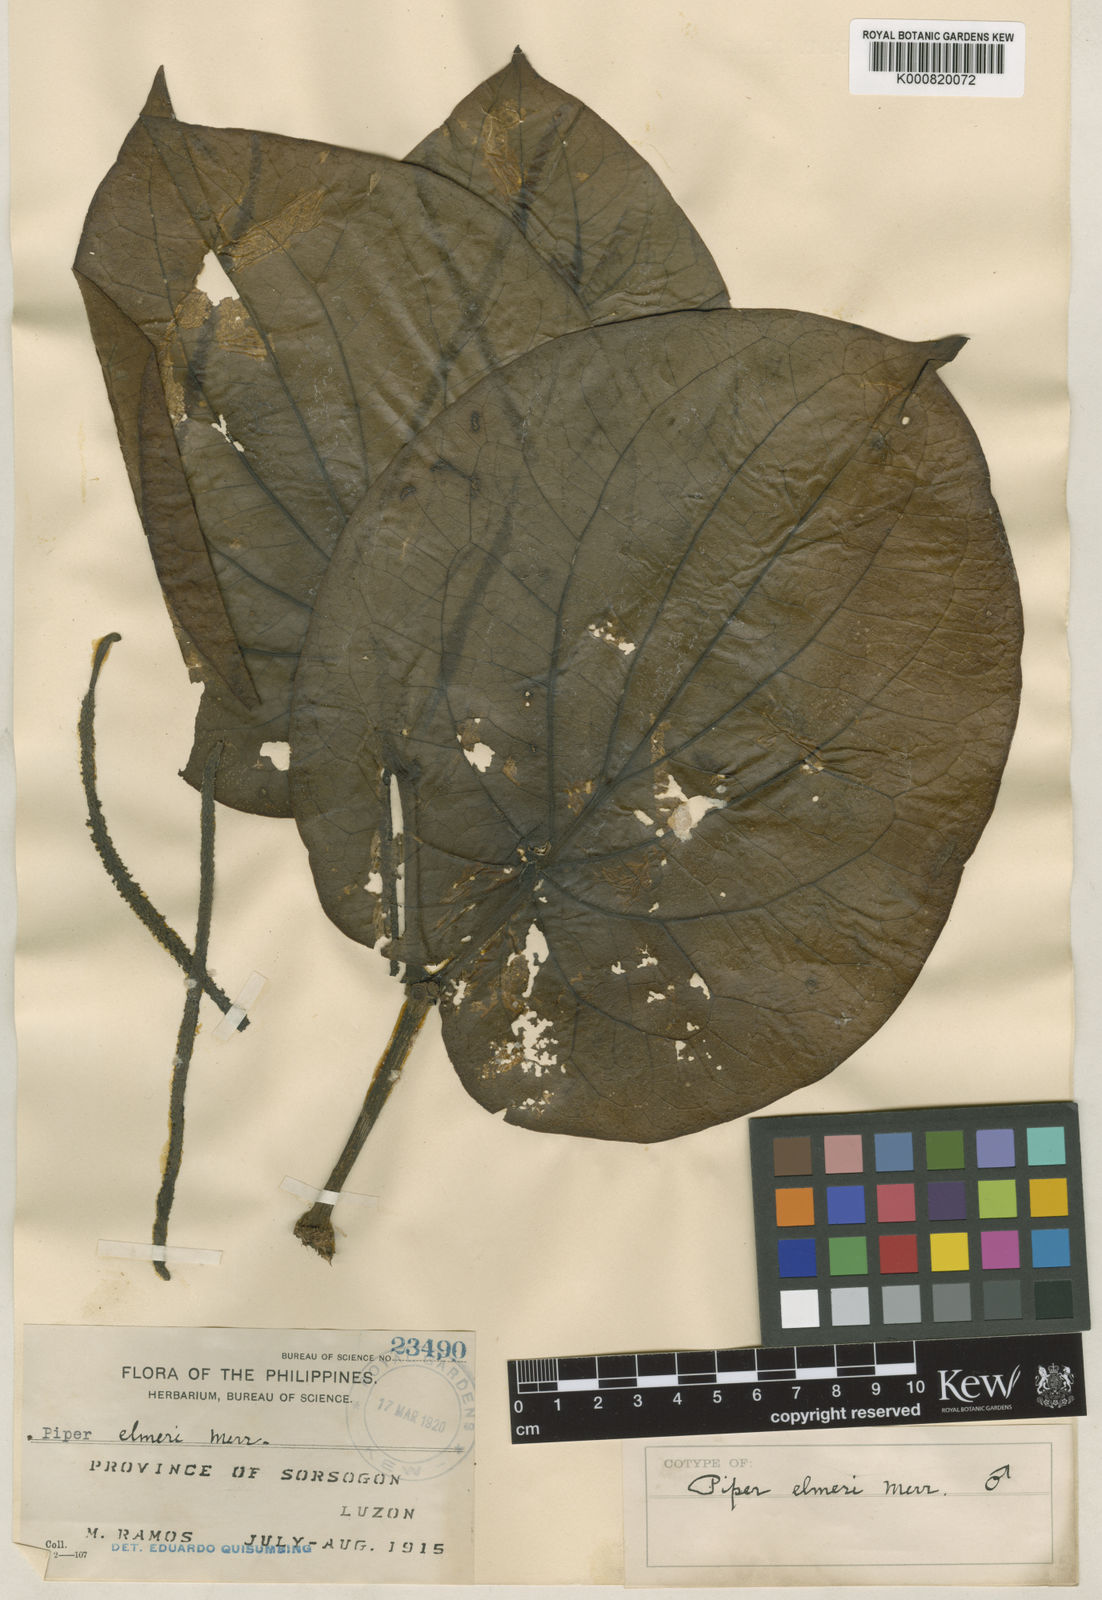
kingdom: Plantae
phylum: Tracheophyta
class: Magnoliopsida
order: Piperales
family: Piperaceae
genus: Piper
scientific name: Piper elmeri
